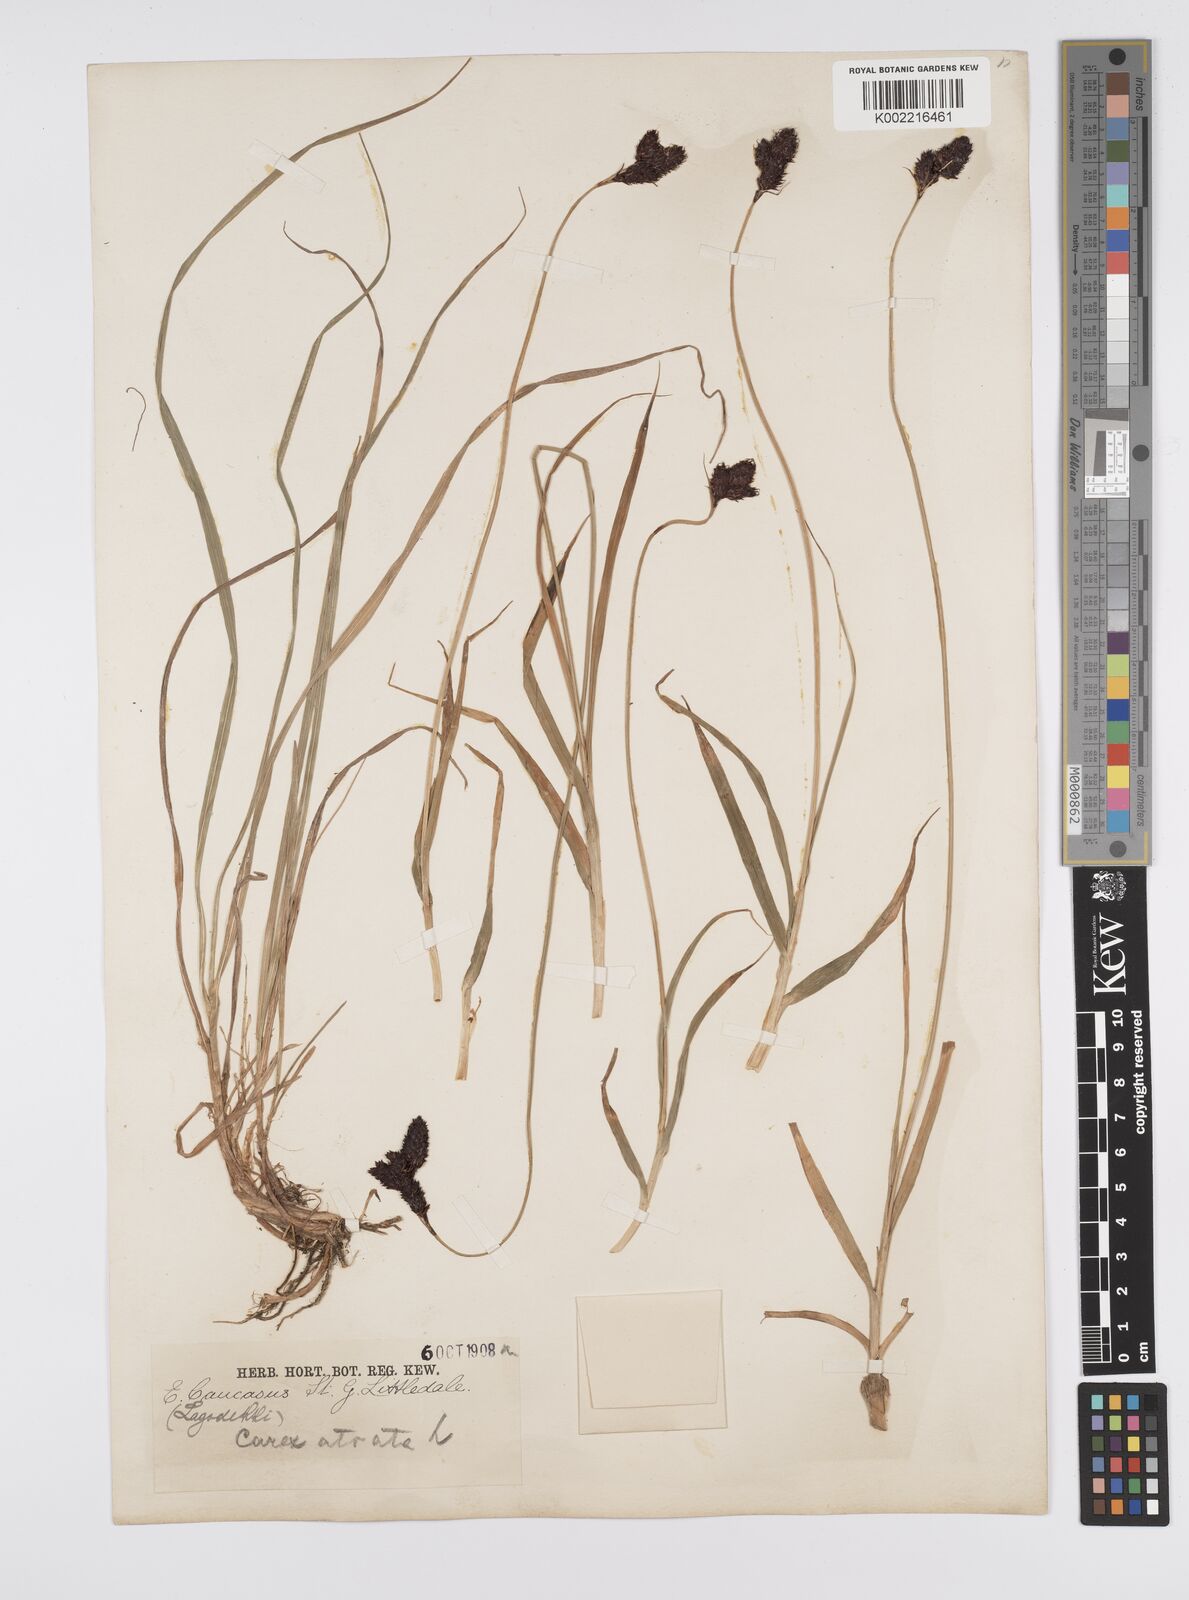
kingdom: Plantae
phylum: Tracheophyta
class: Liliopsida
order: Poales
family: Cyperaceae
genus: Carex
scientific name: Carex atrata
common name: Black alpine sedge
